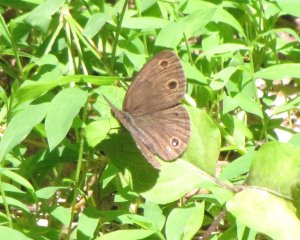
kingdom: Animalia
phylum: Arthropoda
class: Insecta
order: Lepidoptera
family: Nymphalidae
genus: Euptychia
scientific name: Euptychia cymela
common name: Little Wood Satyr
